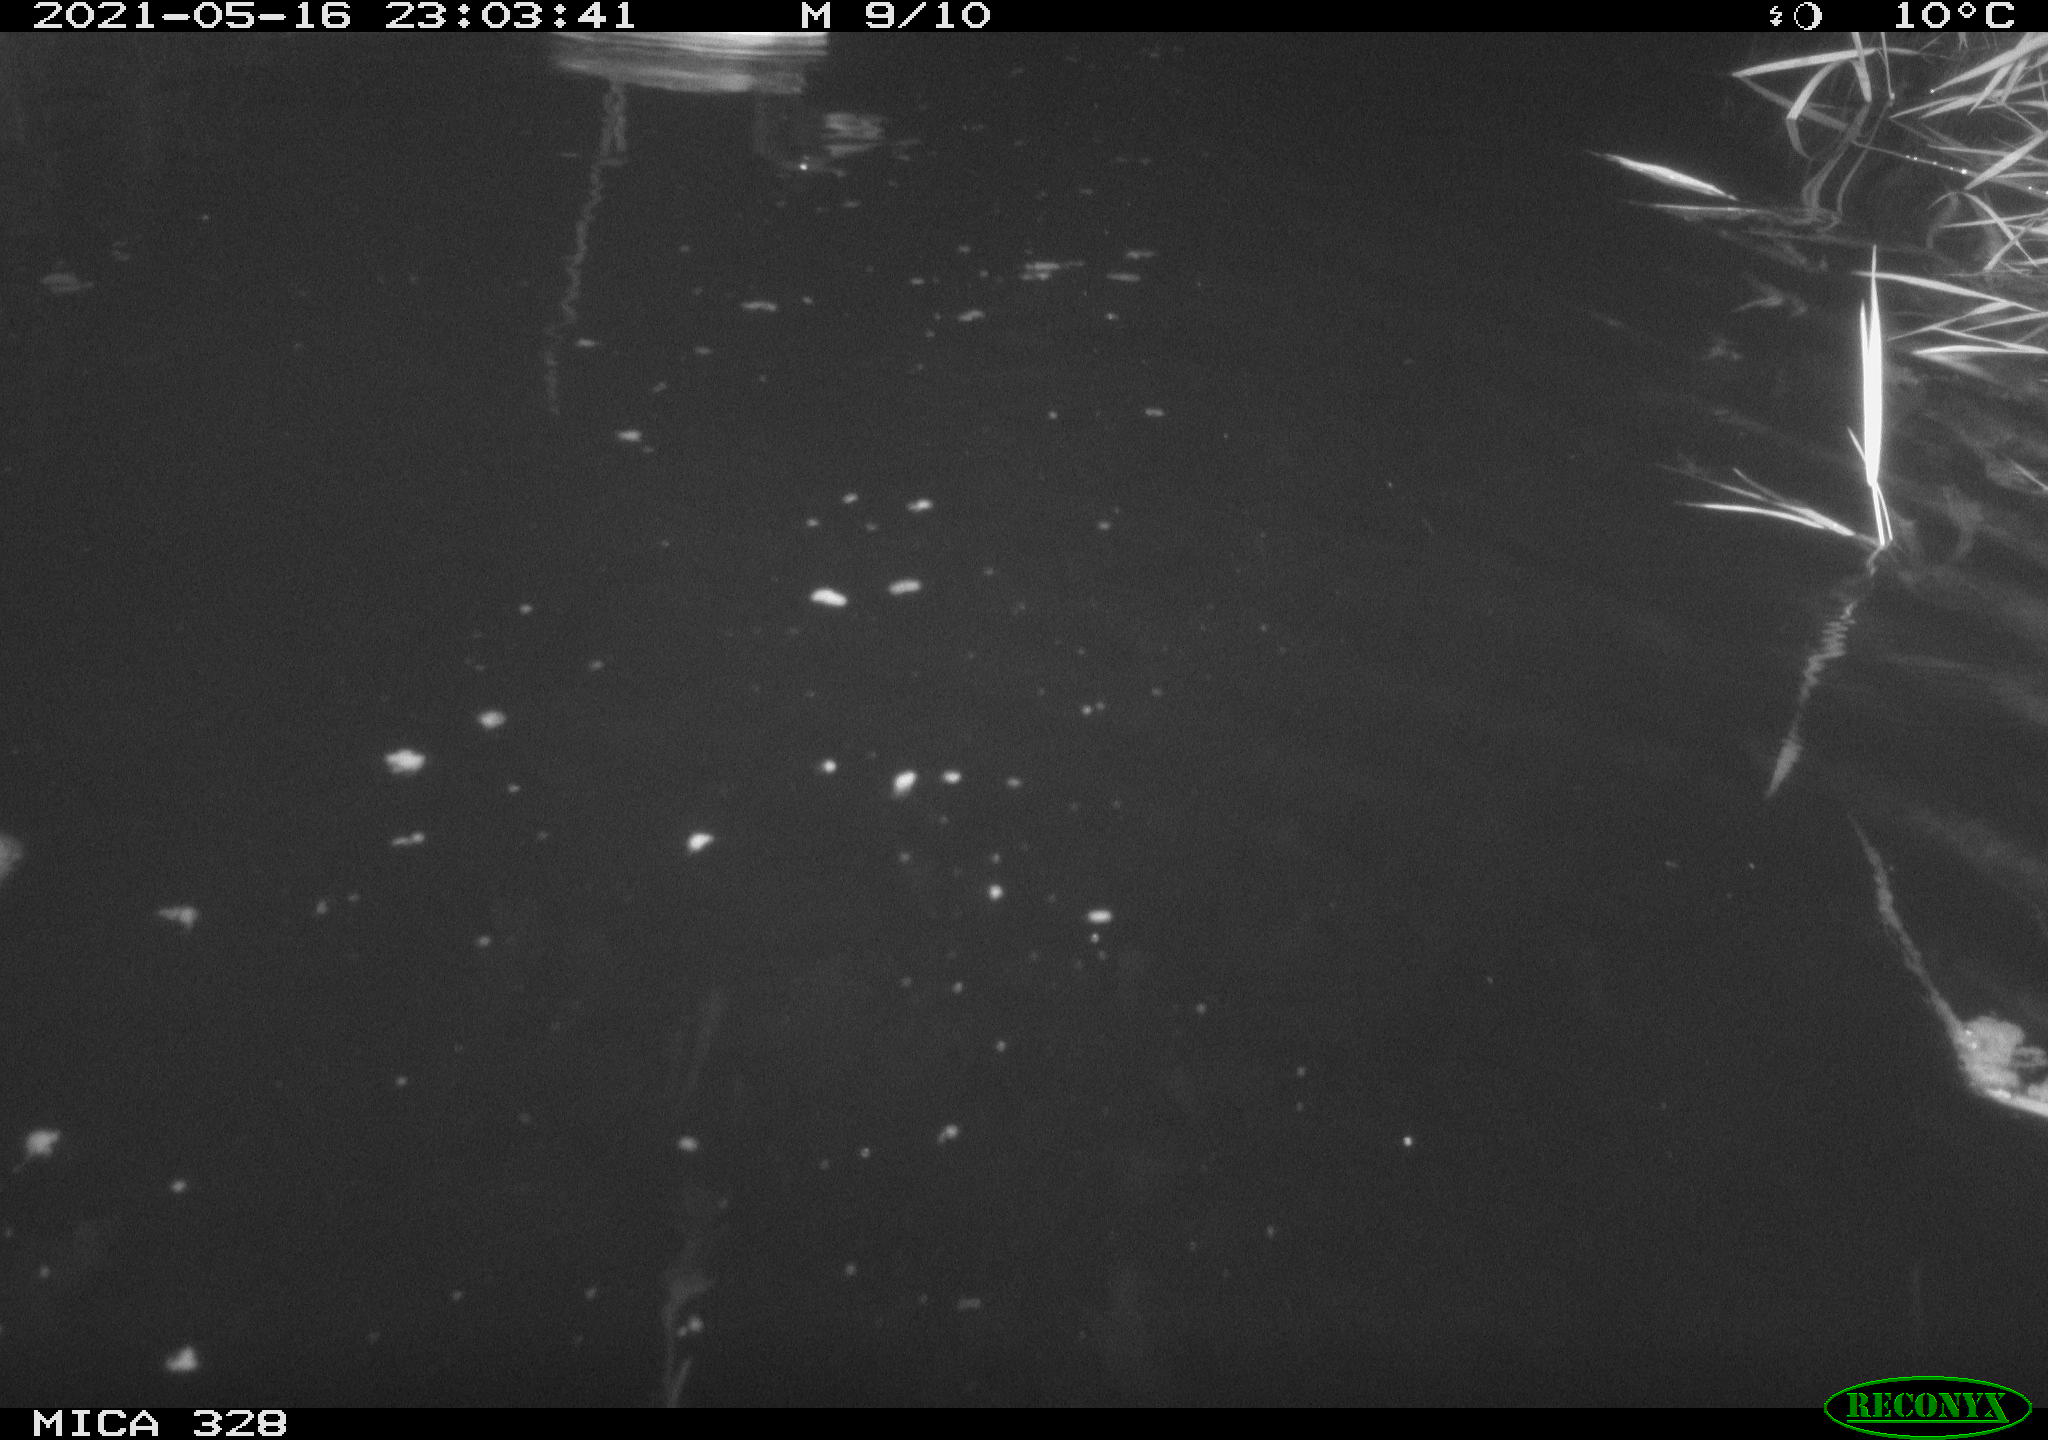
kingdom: Animalia
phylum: Chordata
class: Aves
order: Anseriformes
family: Anatidae
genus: Anas
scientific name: Anas platyrhynchos
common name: Mallard
